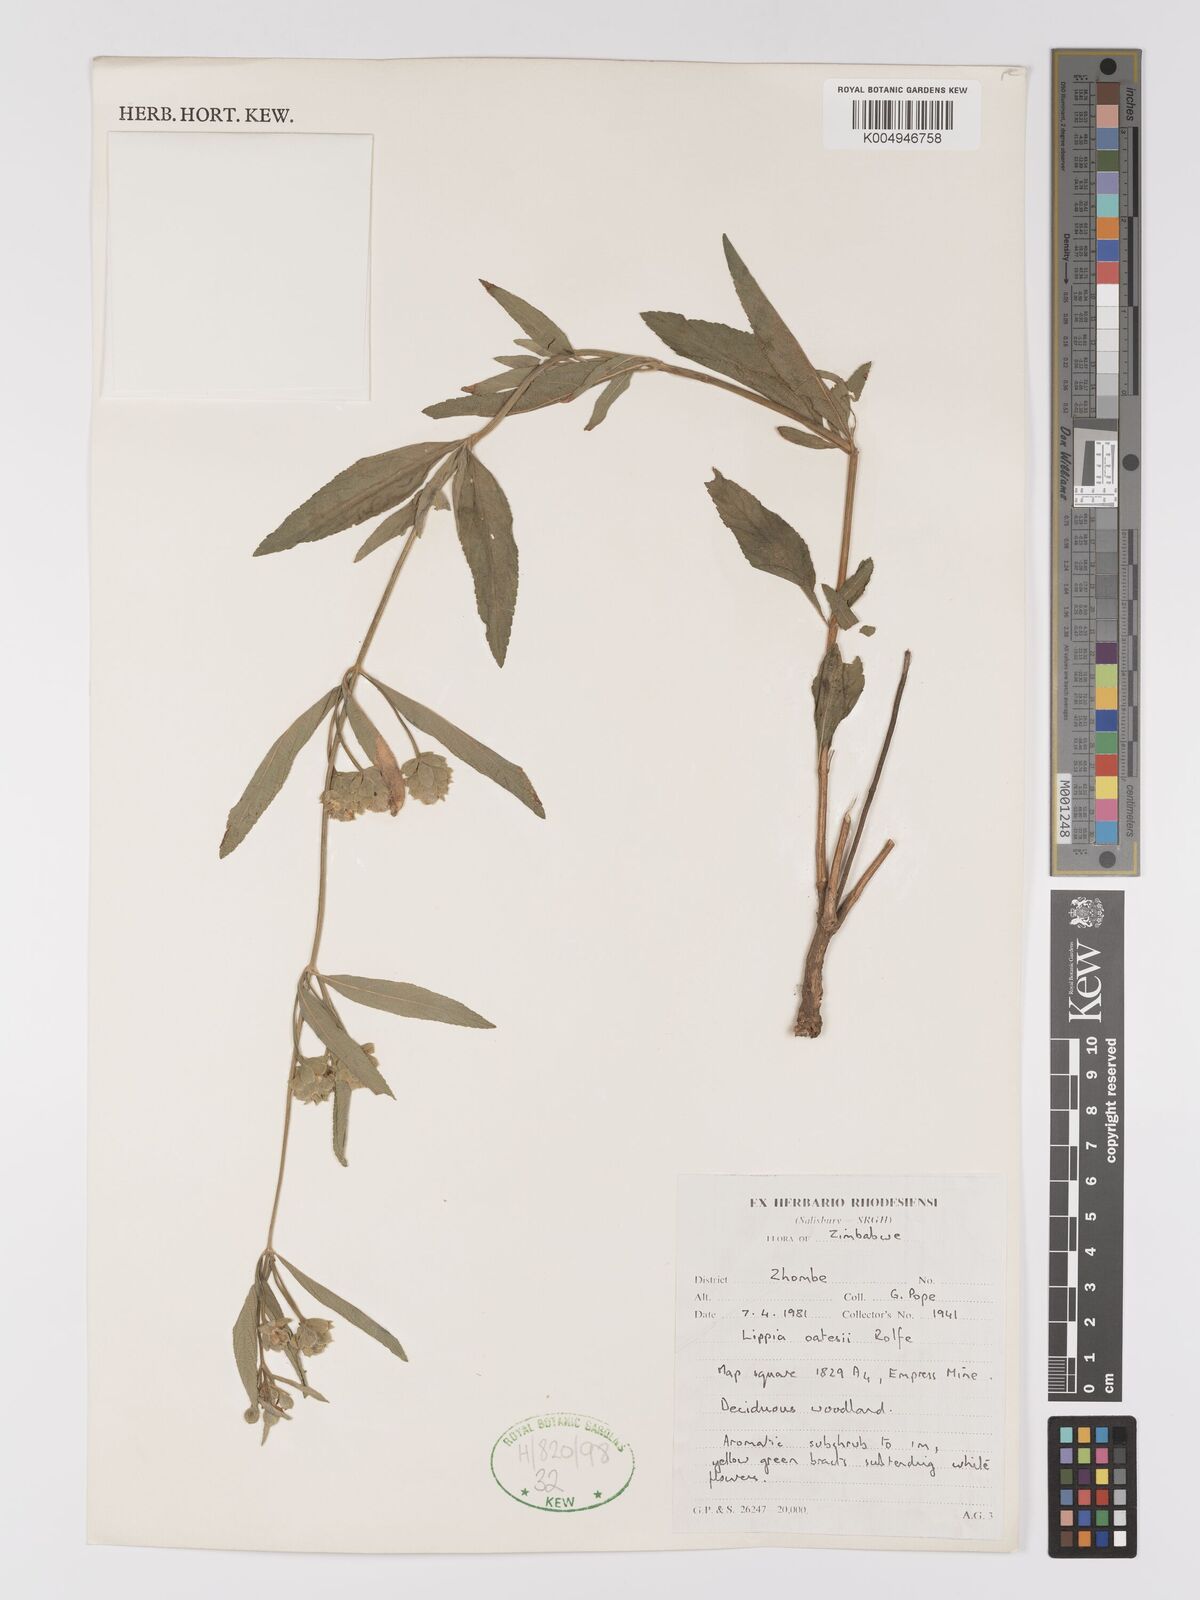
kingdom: Plantae
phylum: Tracheophyta
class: Magnoliopsida
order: Lamiales
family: Verbenaceae
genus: Lippia
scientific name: Lippia oatesii
